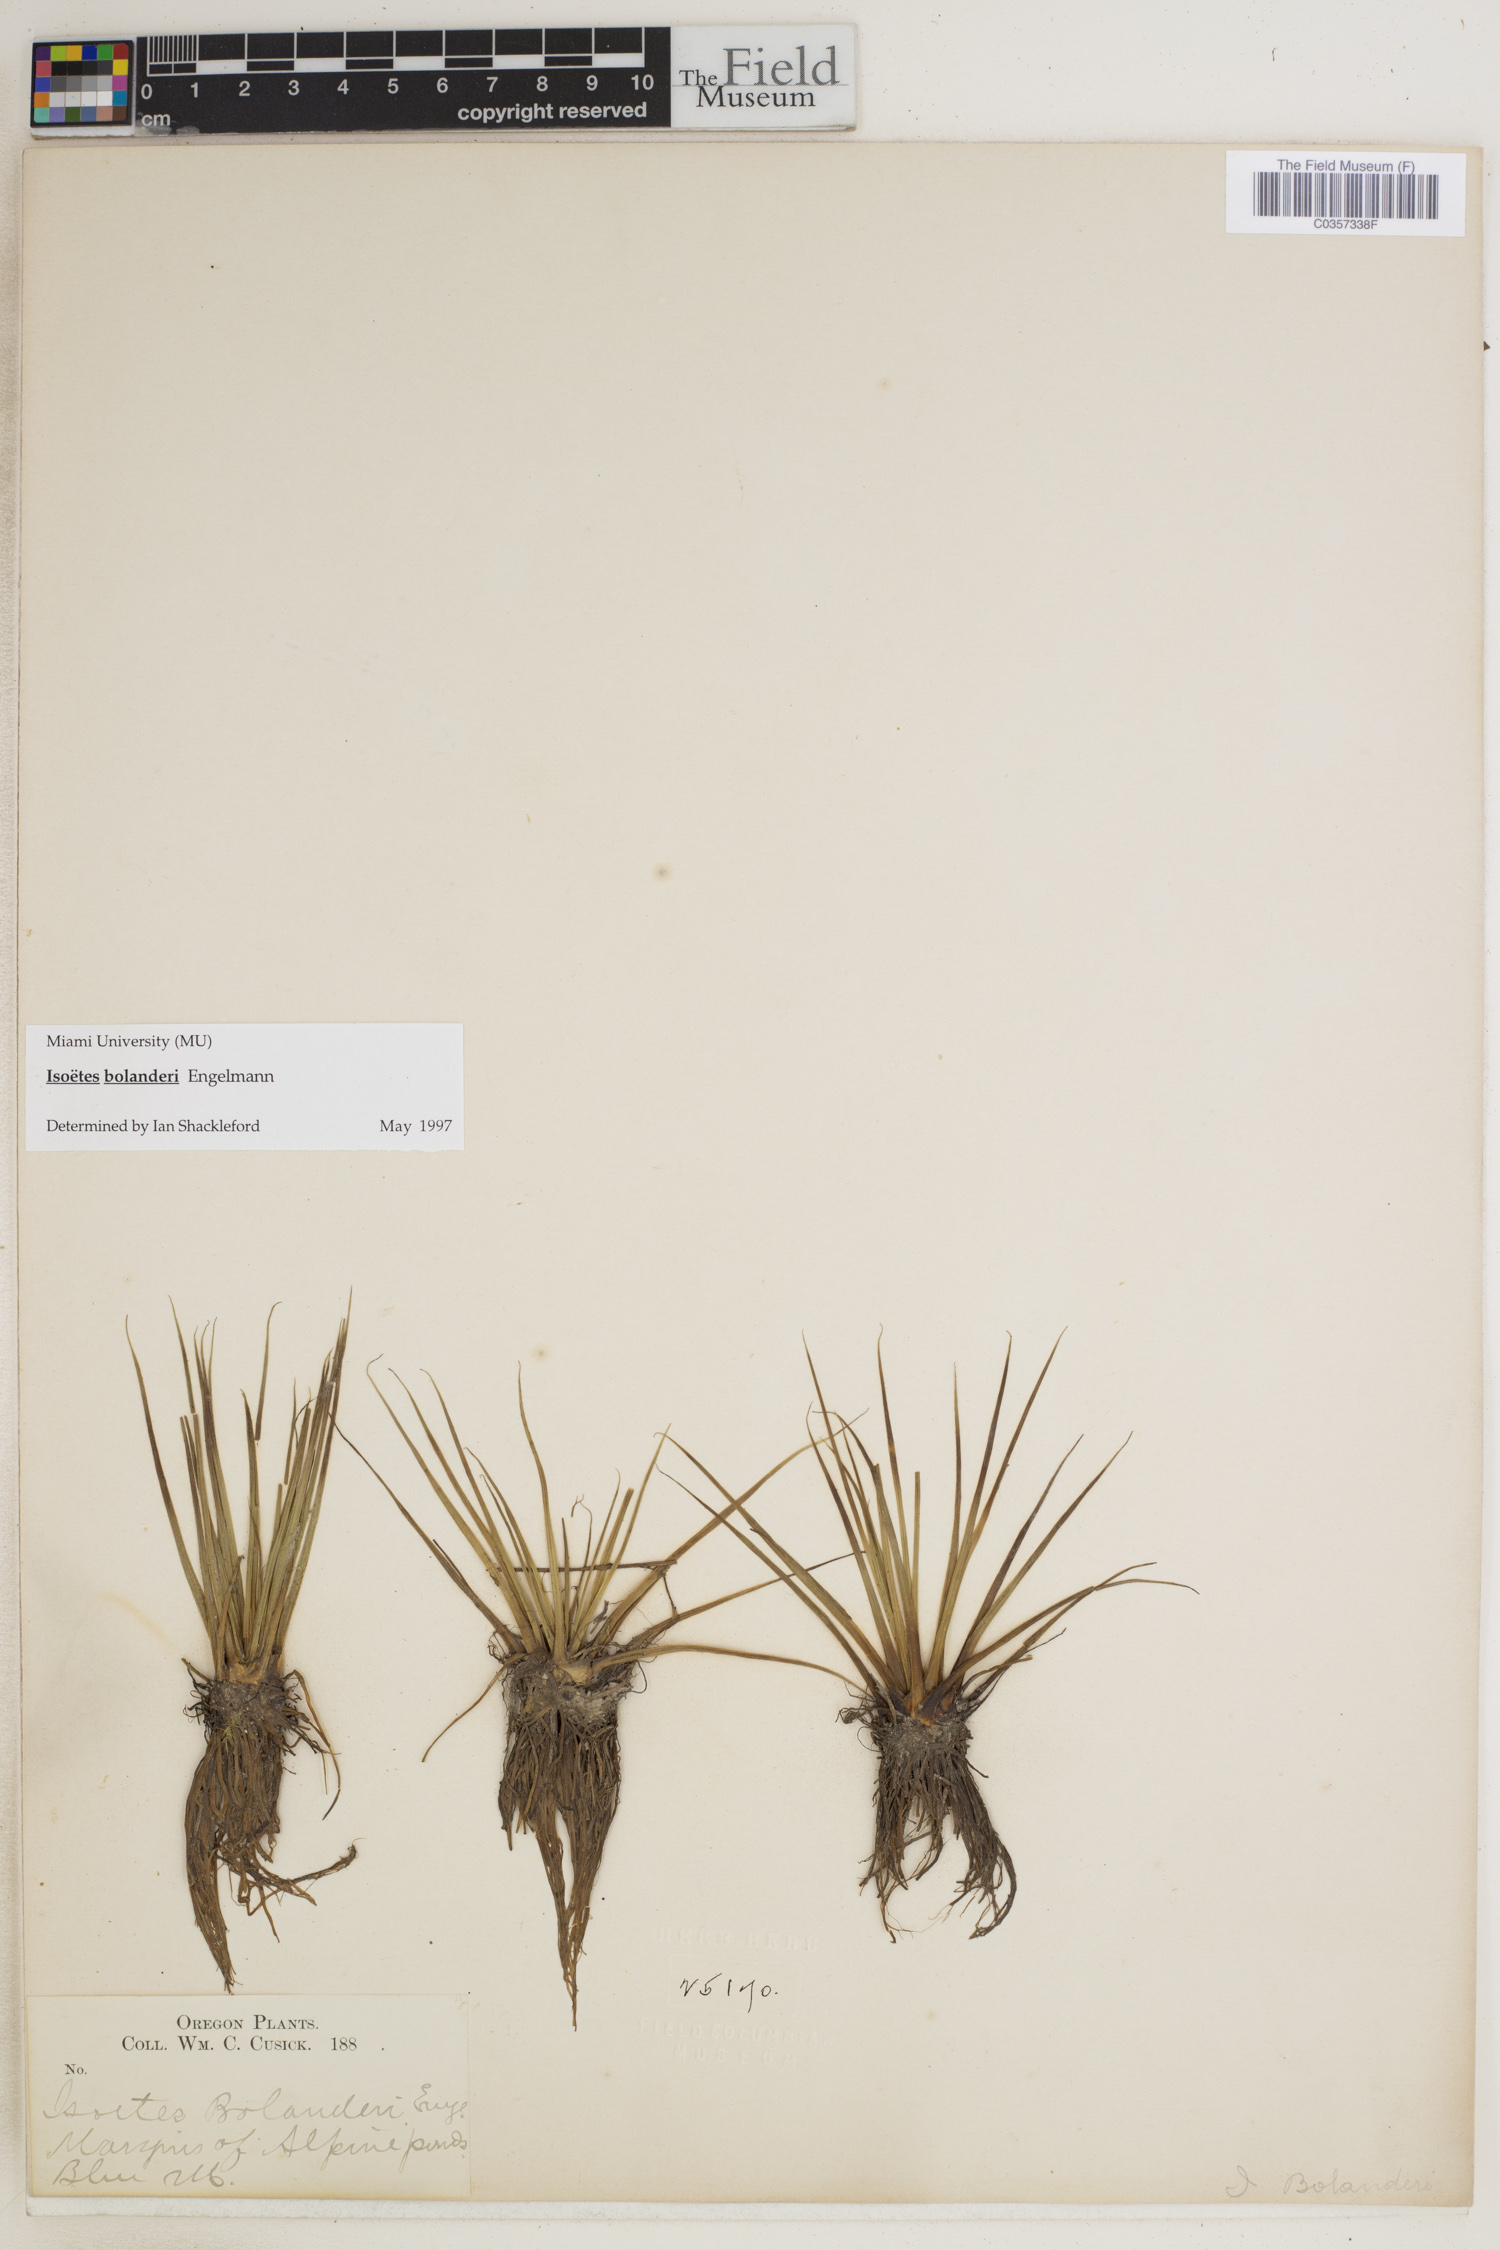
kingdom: Plantae
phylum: Tracheophyta
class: Lycopodiopsida
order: Isoetales
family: Isoetaceae
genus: Isoetes
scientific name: Isoetes bolanderi
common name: Bolander's quillwort
